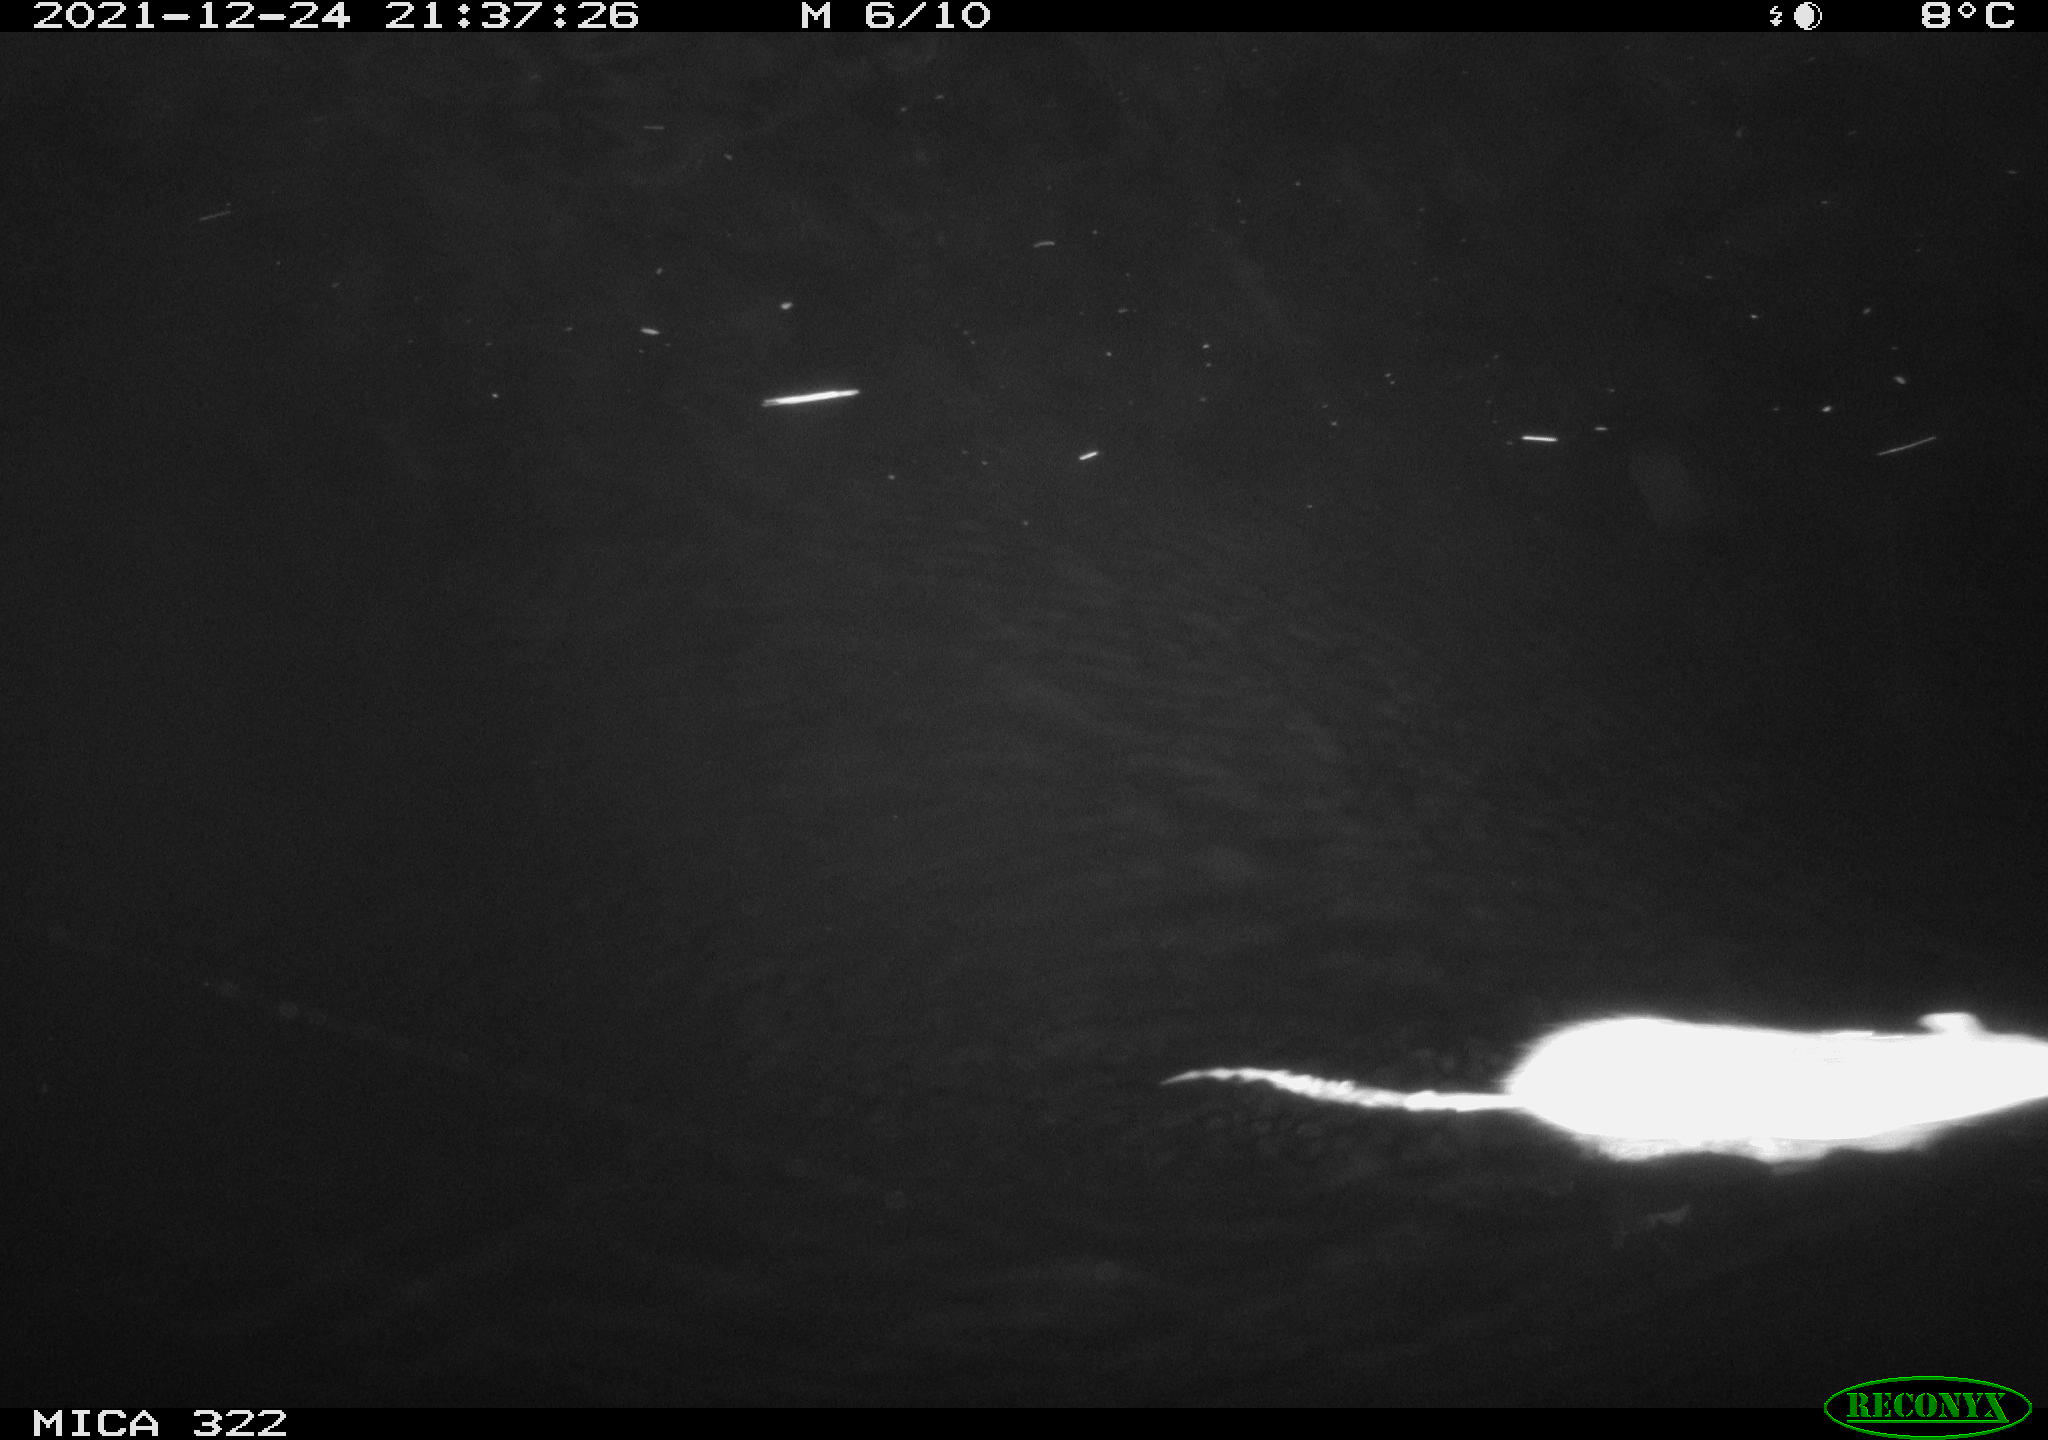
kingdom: Animalia
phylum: Chordata
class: Mammalia
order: Rodentia
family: Muridae
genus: Rattus
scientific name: Rattus norvegicus
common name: Brown rat
